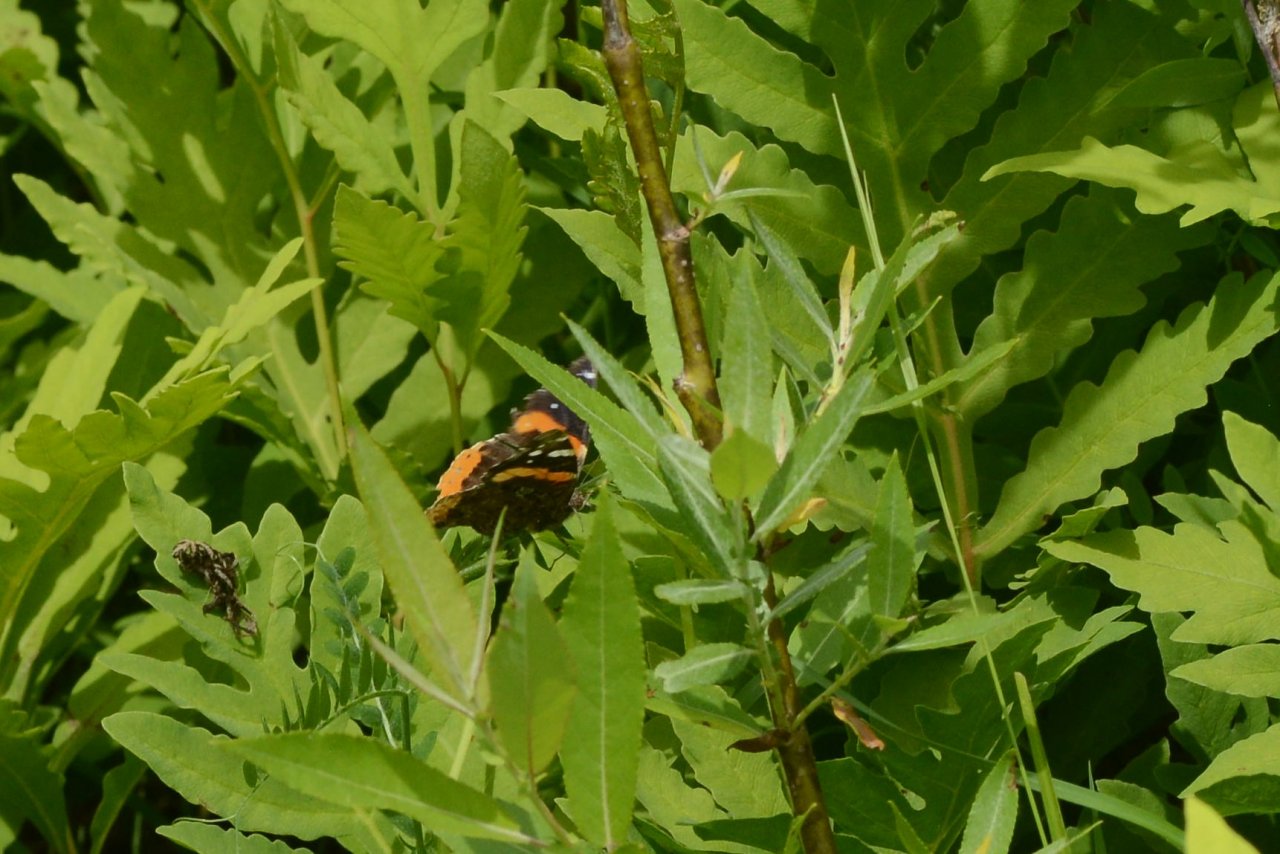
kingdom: Animalia
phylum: Arthropoda
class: Insecta
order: Lepidoptera
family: Nymphalidae
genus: Vanessa
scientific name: Vanessa atalanta
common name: Red Admiral
